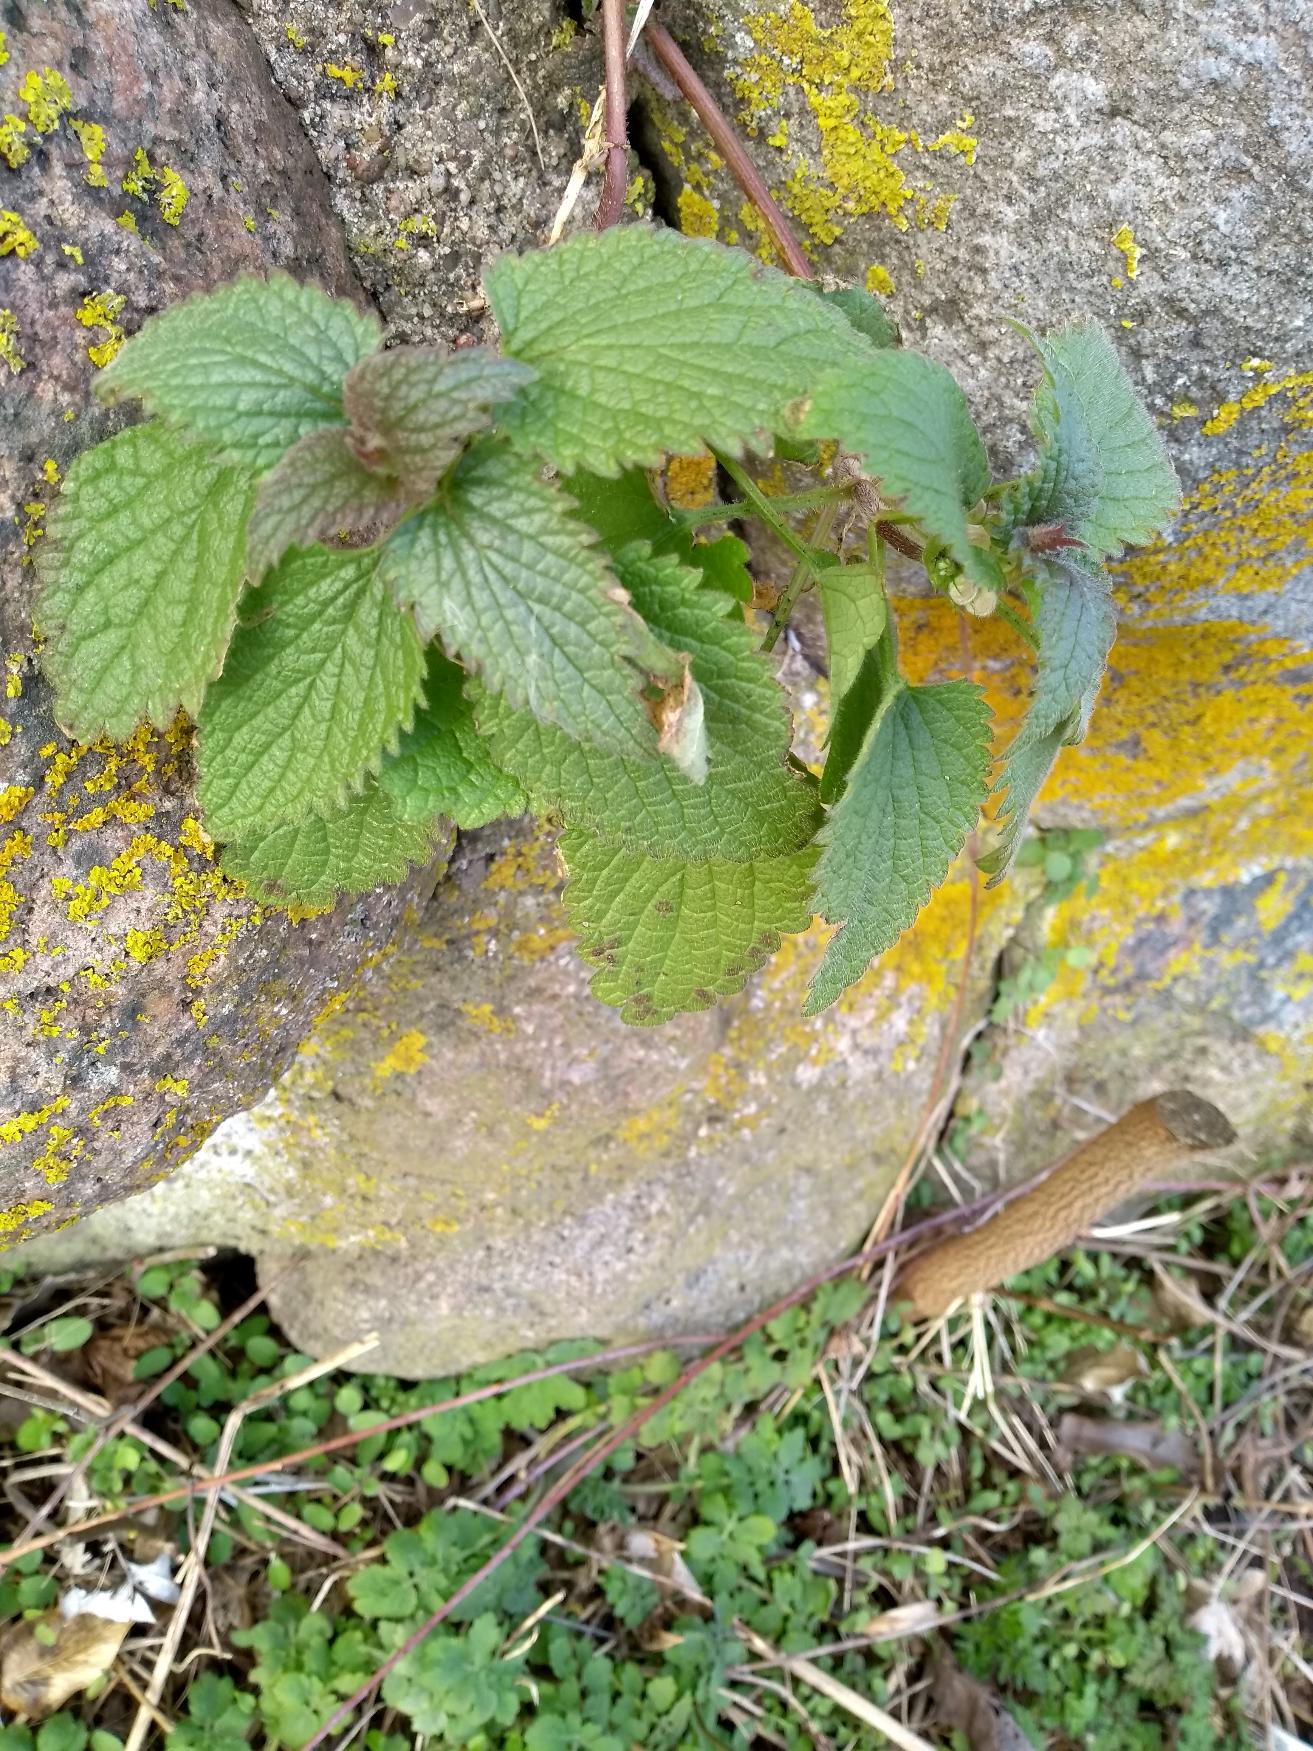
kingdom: Plantae
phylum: Tracheophyta
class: Magnoliopsida
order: Lamiales
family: Lamiaceae
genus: Lamium
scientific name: Lamium album
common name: Døvnælde
